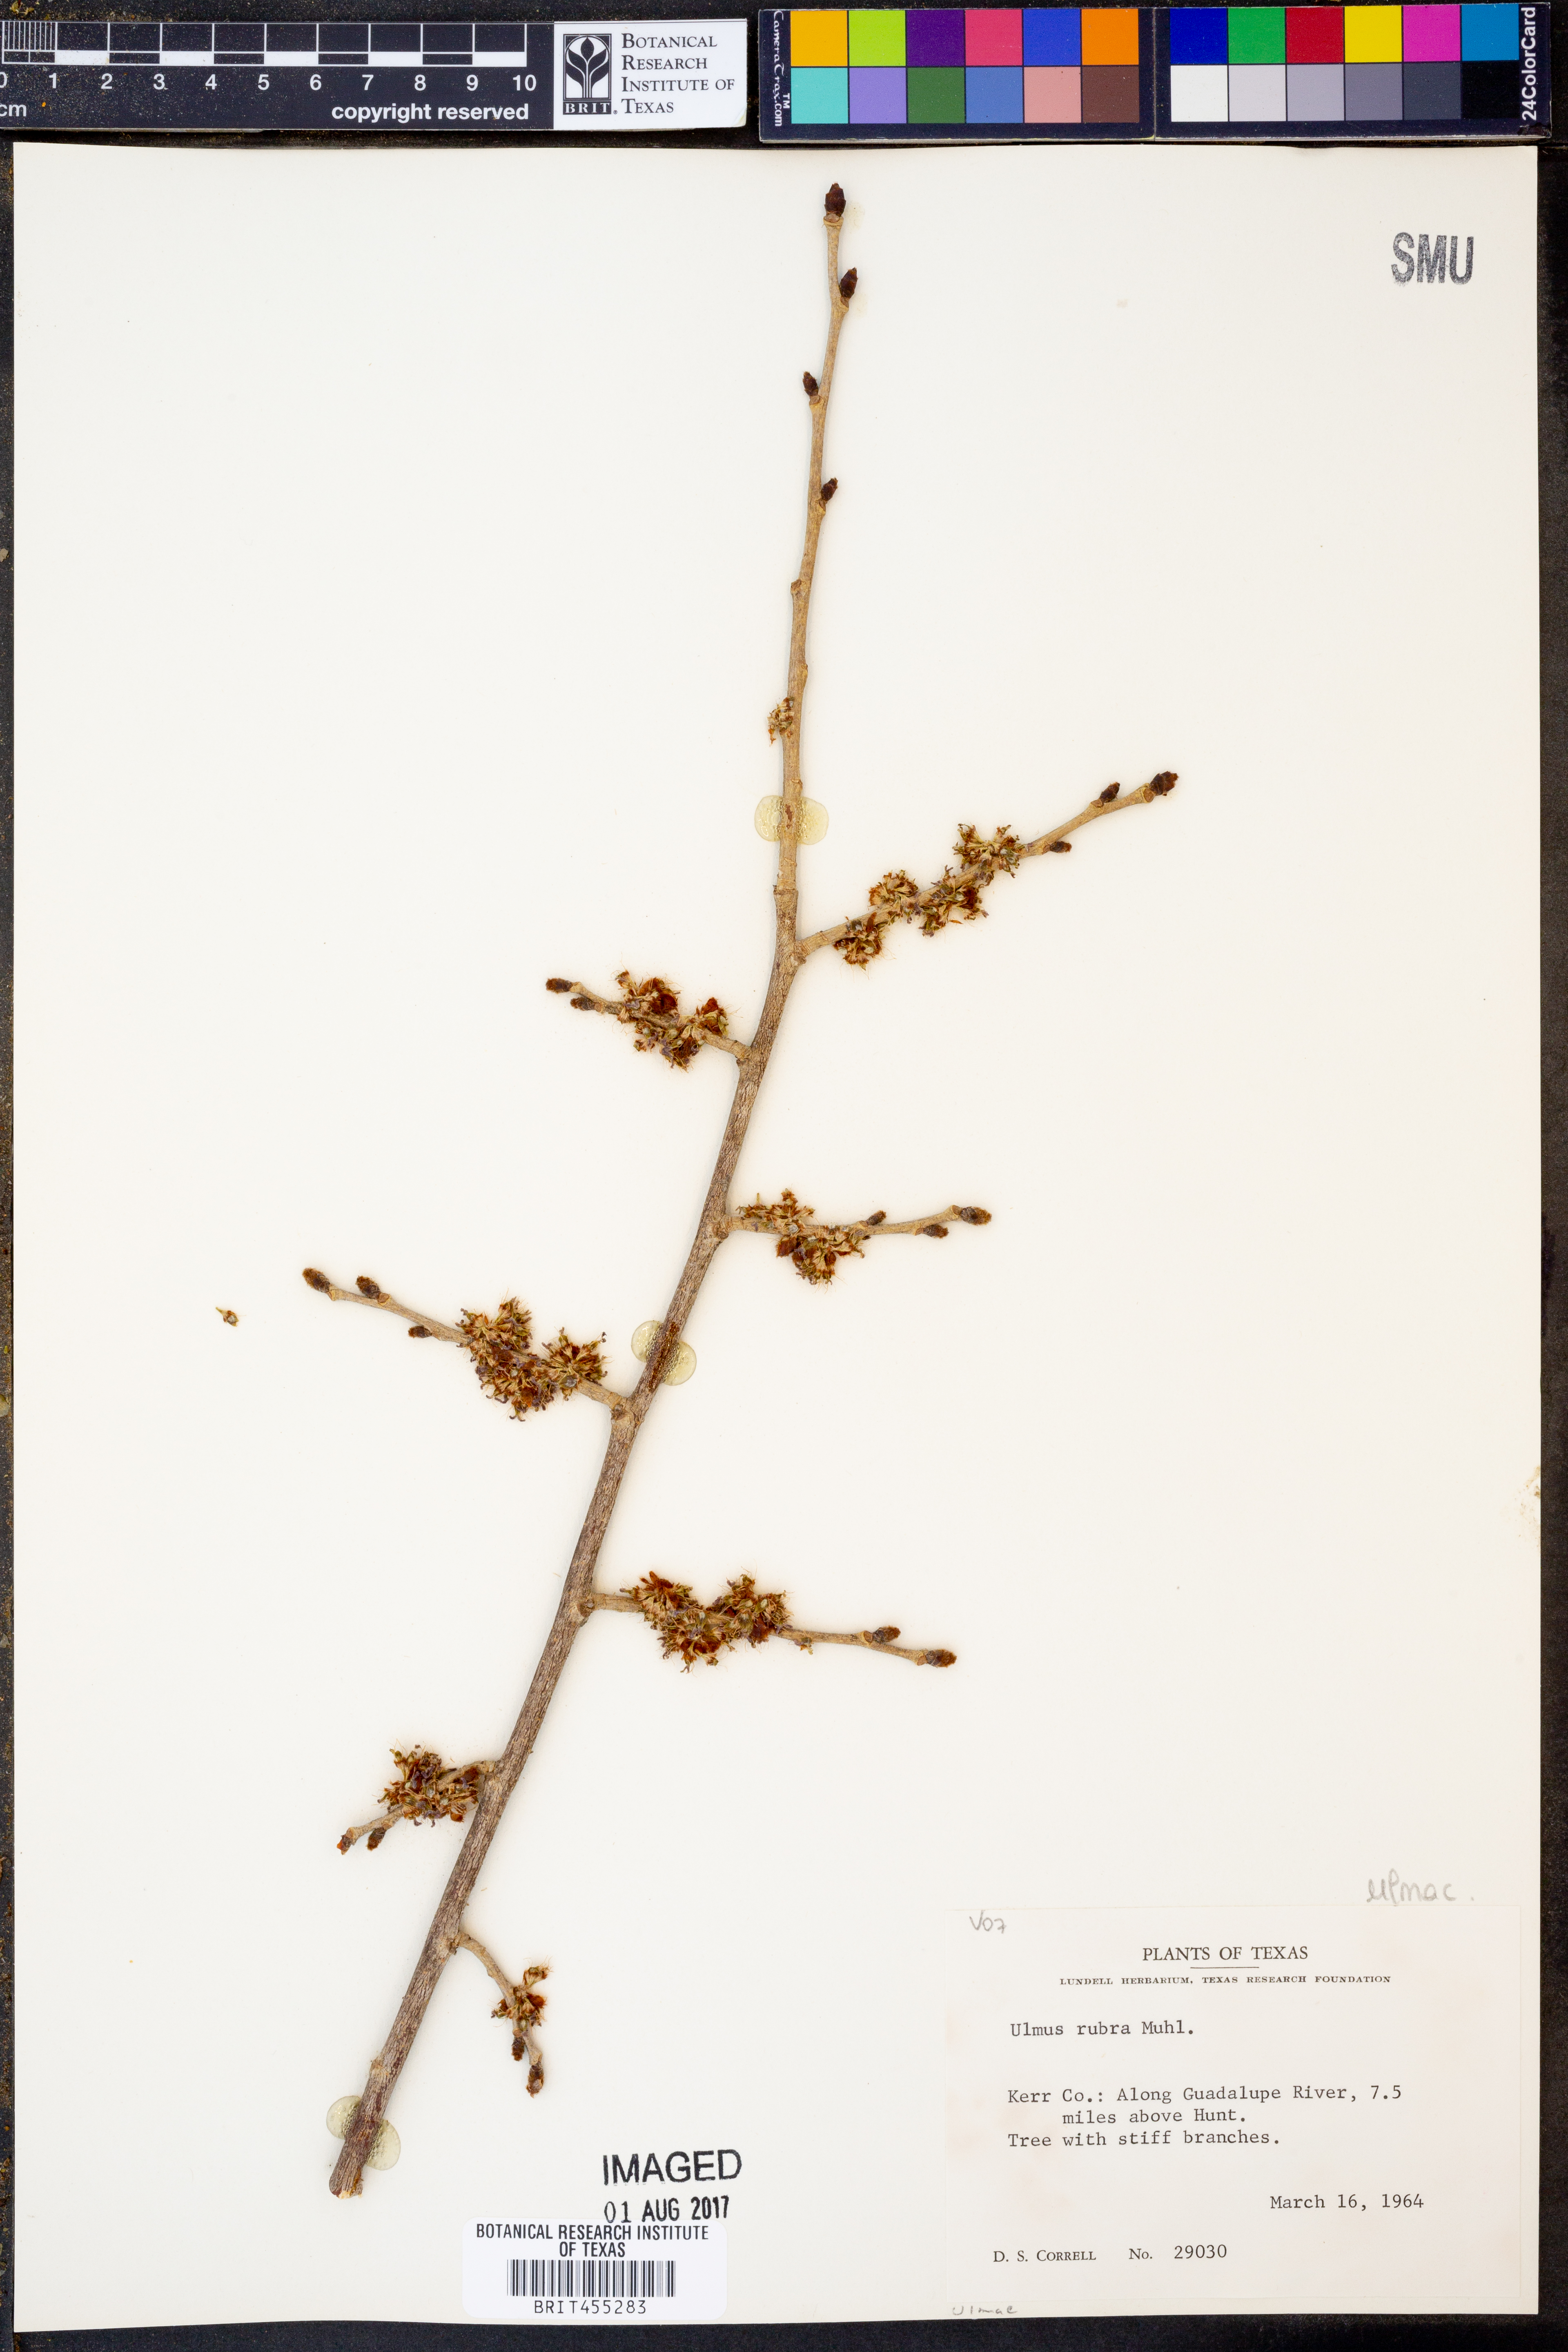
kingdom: Plantae
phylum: Tracheophyta
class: Magnoliopsida
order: Rosales
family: Ulmaceae
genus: Ulmus
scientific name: Ulmus rubra
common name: Slippery elm
